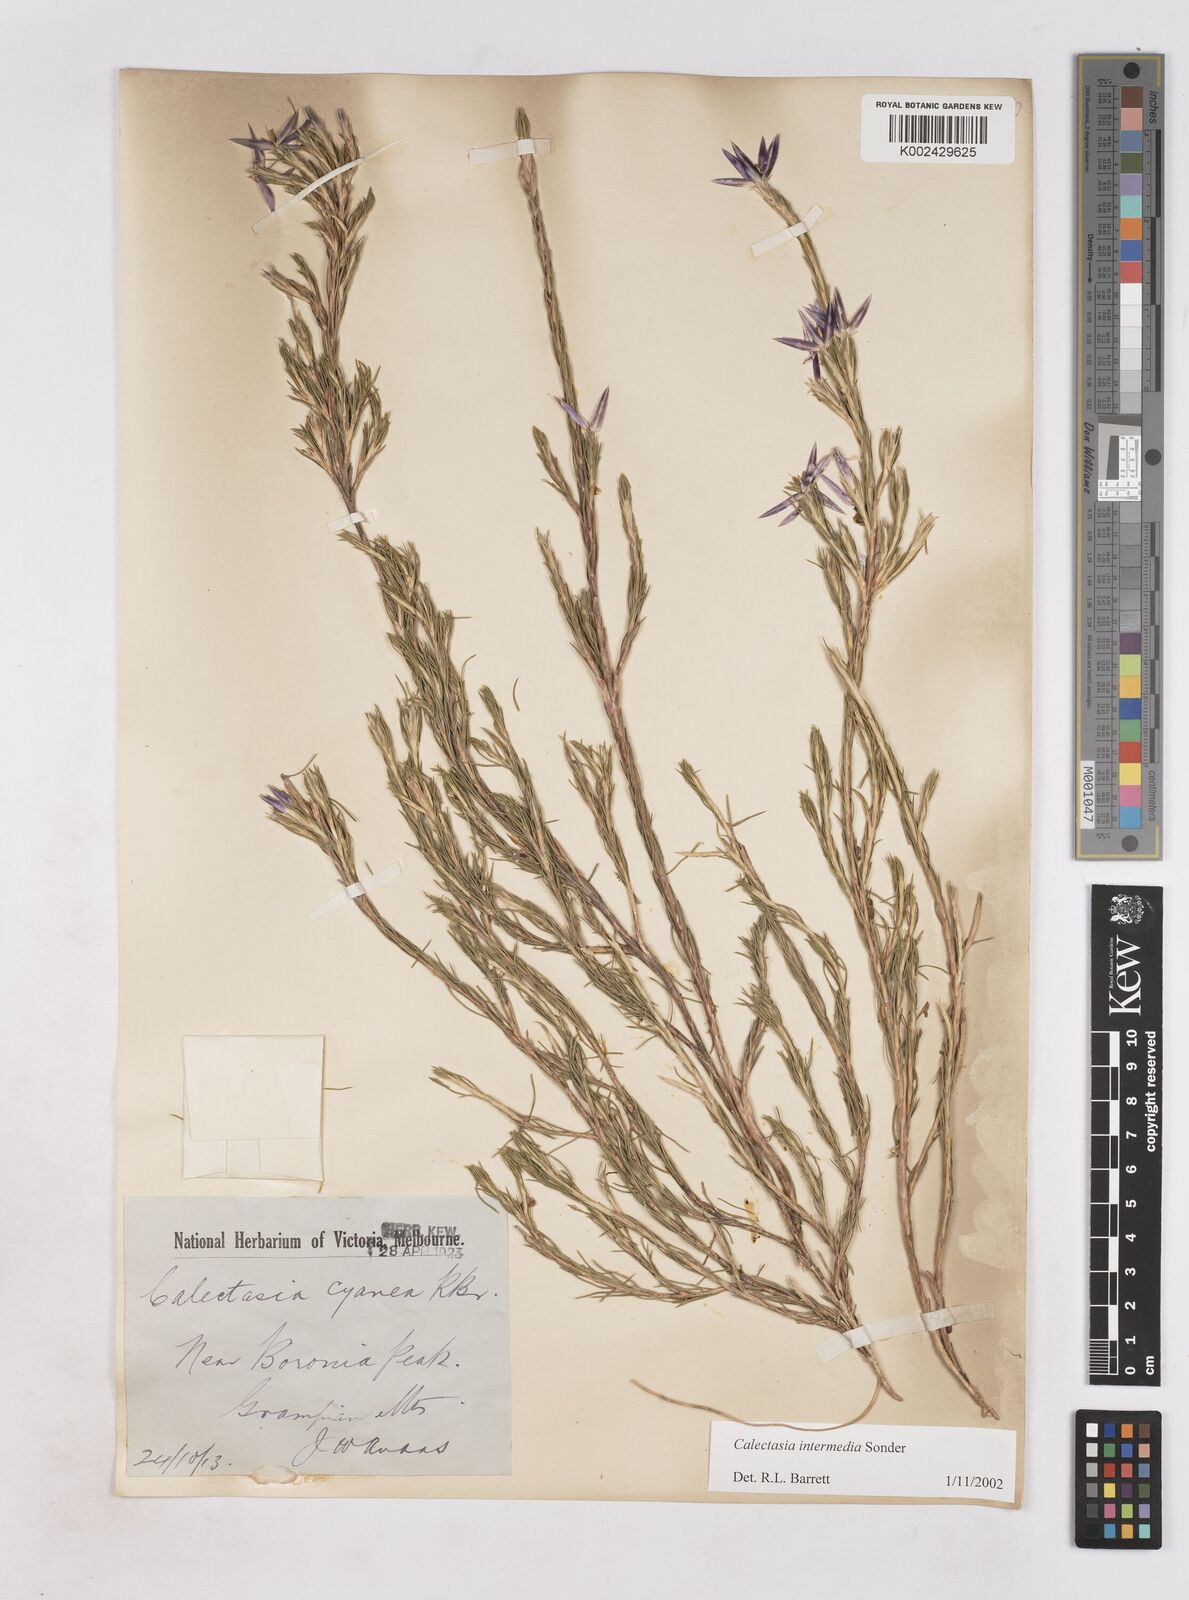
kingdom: Plantae
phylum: Tracheophyta
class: Liliopsida
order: Arecales
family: Dasypogonaceae
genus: Calectasia
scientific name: Calectasia intermedia
